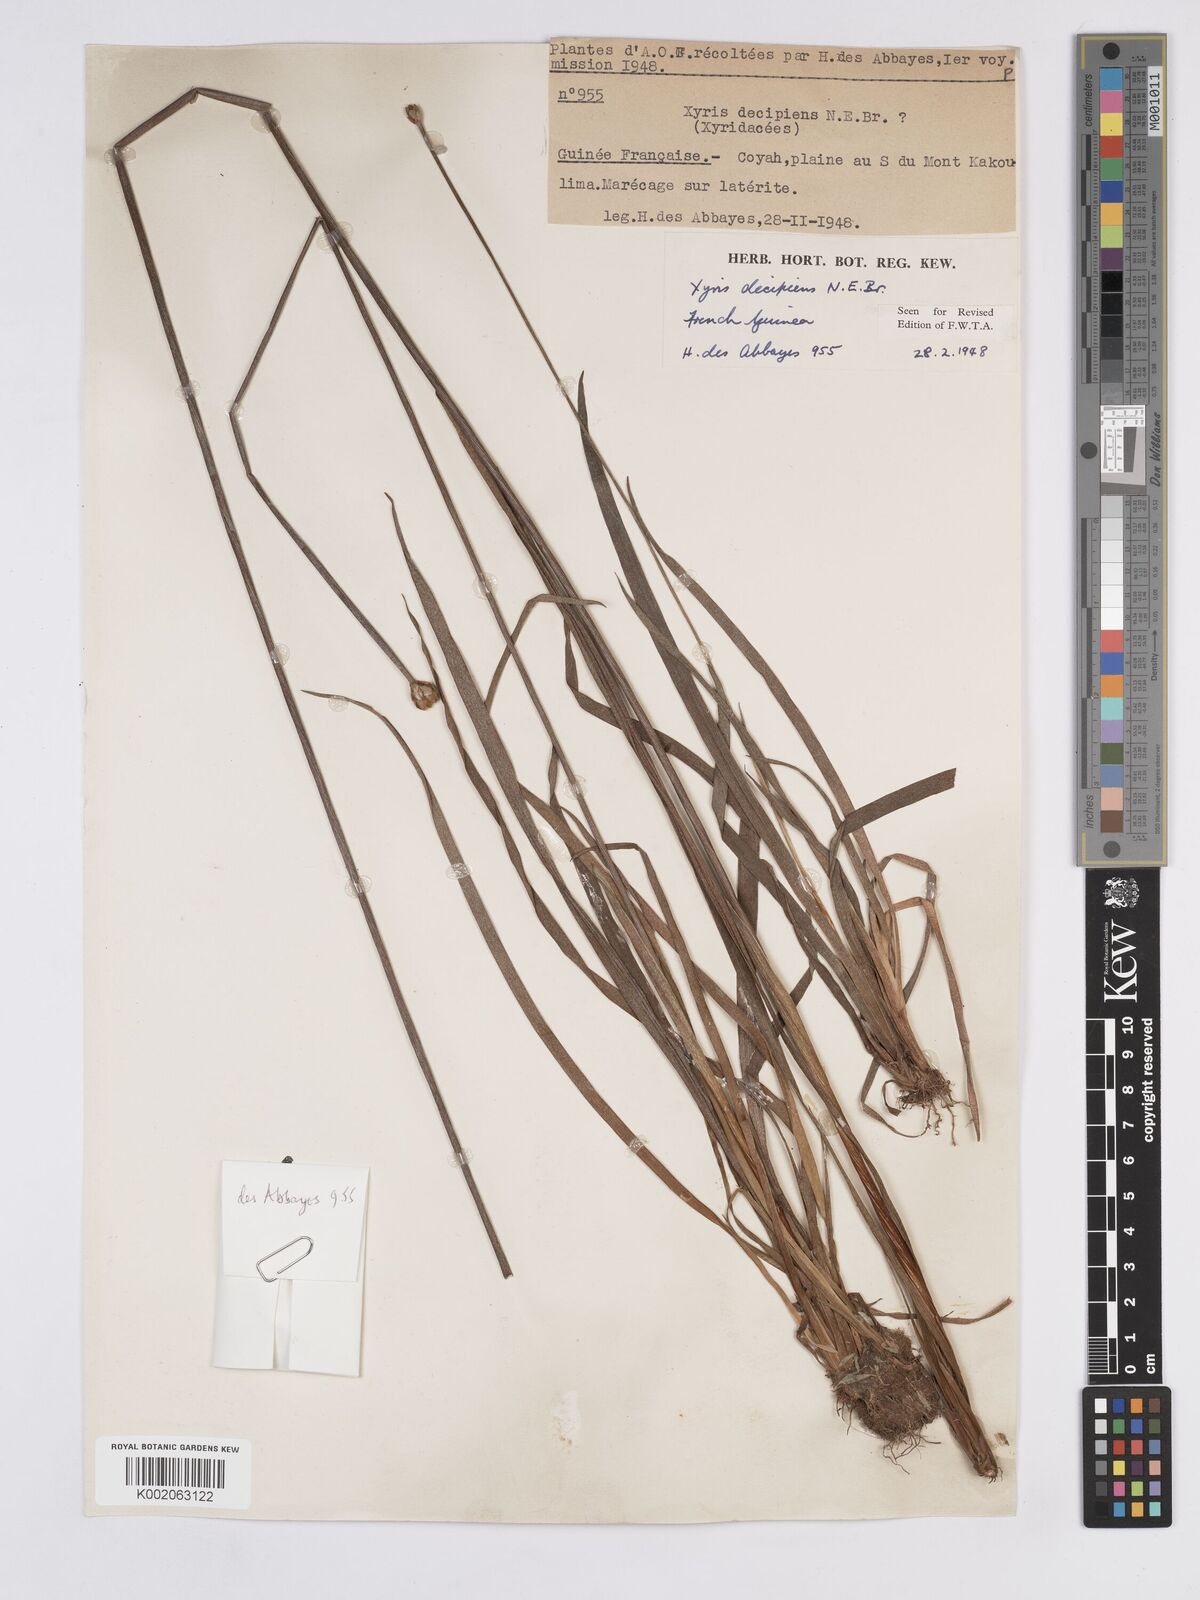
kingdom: Plantae
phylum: Tracheophyta
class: Liliopsida
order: Poales
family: Xyridaceae
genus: Xyris
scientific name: Xyris decipiens
